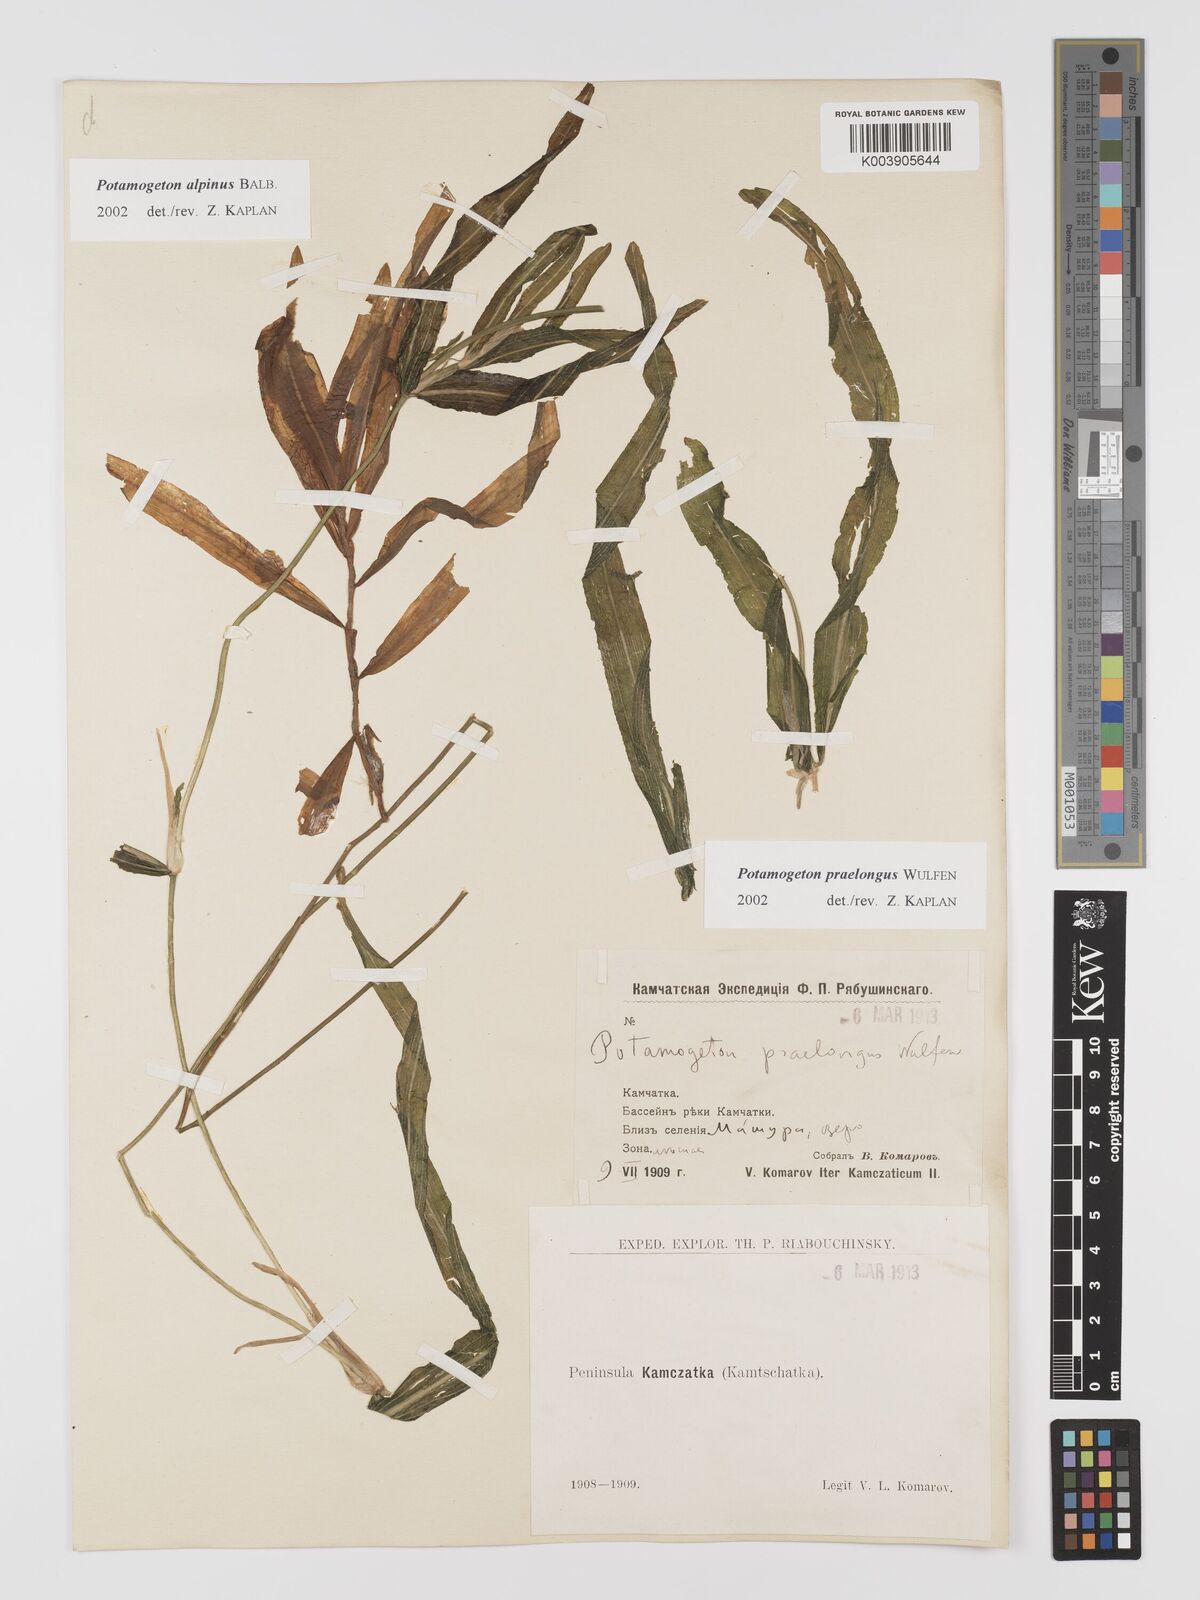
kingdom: Plantae
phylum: Tracheophyta
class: Liliopsida
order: Alismatales
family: Potamogetonaceae
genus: Potamogeton
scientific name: Potamogeton praelongus
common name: Long-stalked pondweed
